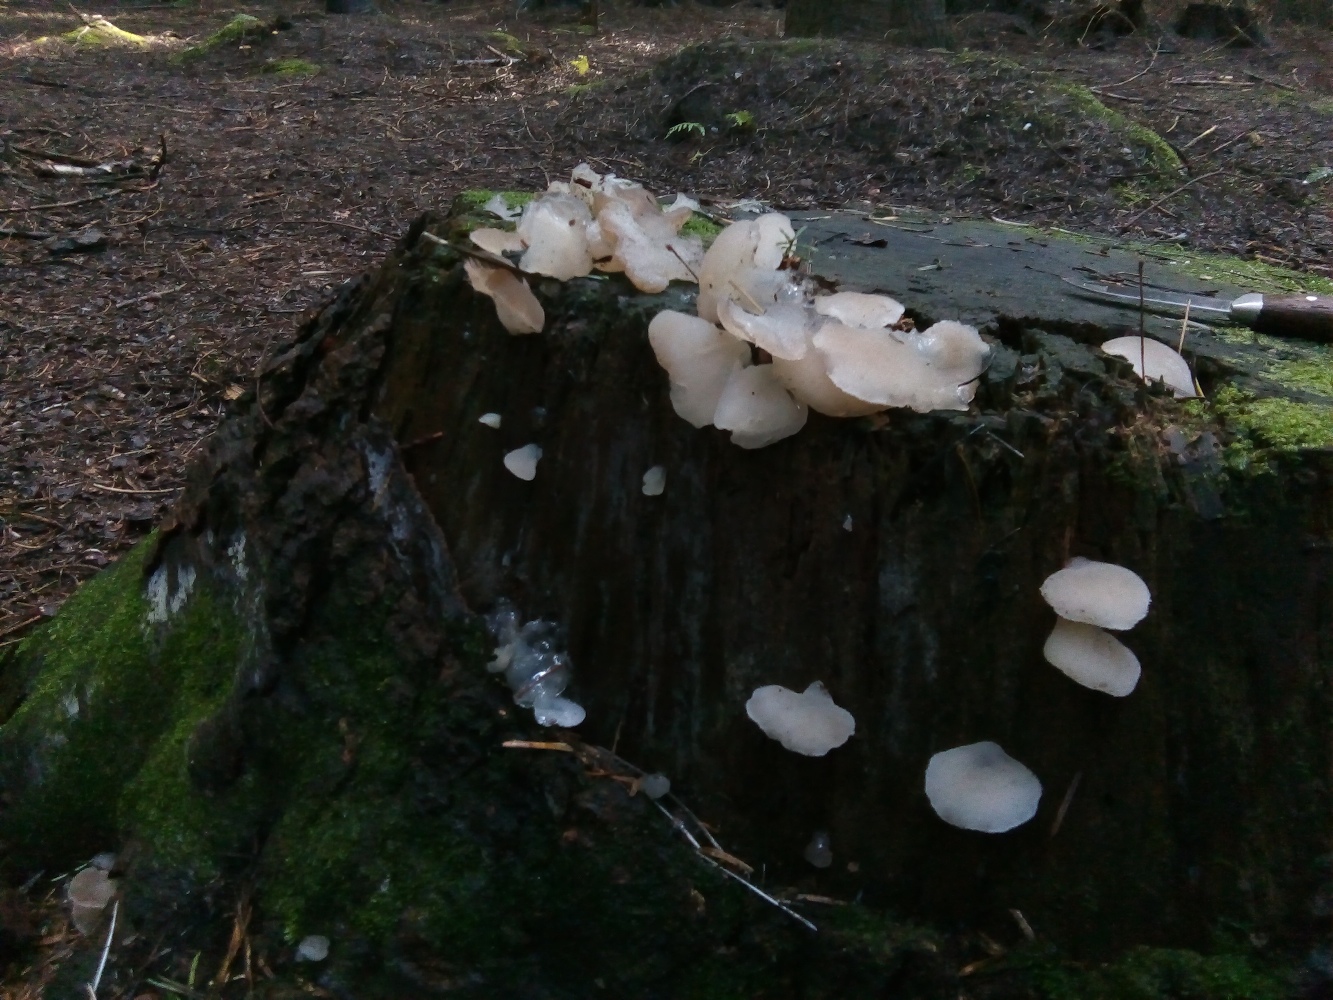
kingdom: Fungi
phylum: Basidiomycota
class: Agaricomycetes
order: Auriculariales
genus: Pseudohydnum
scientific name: Pseudohydnum gelatinosum
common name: bævretand
